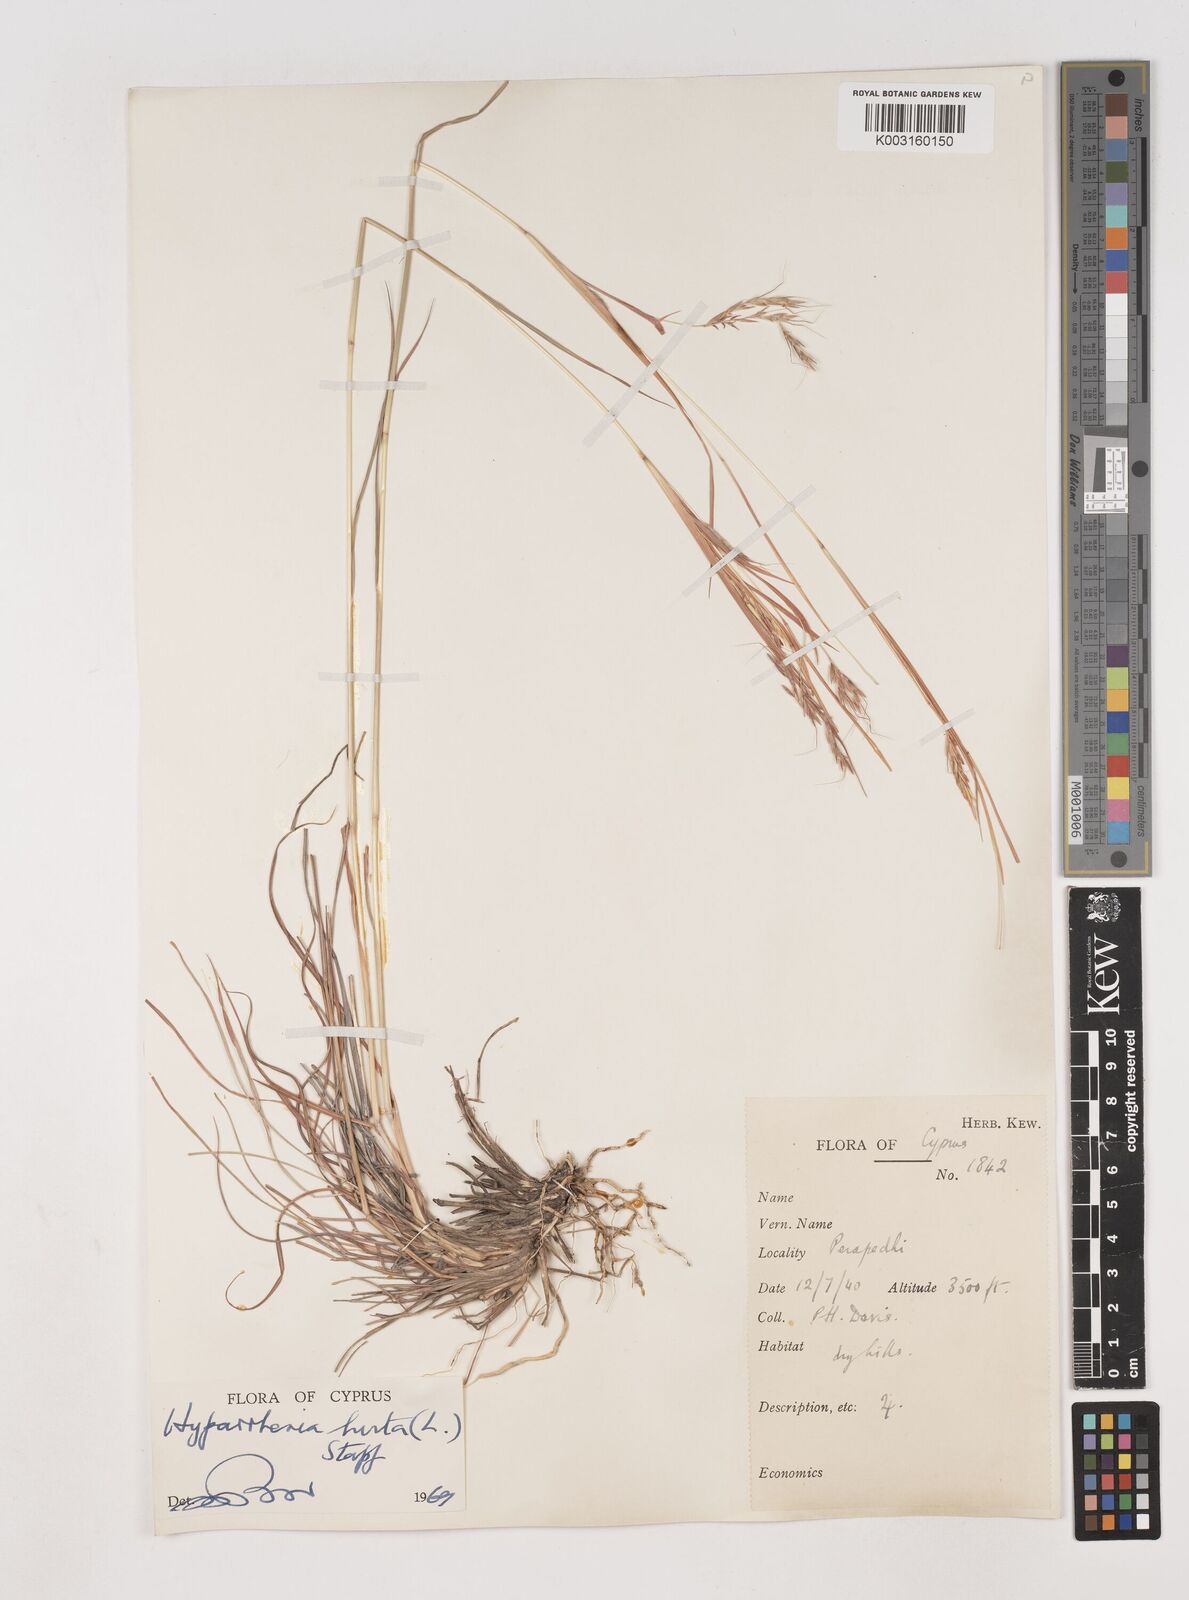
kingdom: Plantae
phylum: Tracheophyta
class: Liliopsida
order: Poales
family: Poaceae
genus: Hyparrhenia
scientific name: Hyparrhenia hirta
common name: Thatching grass
